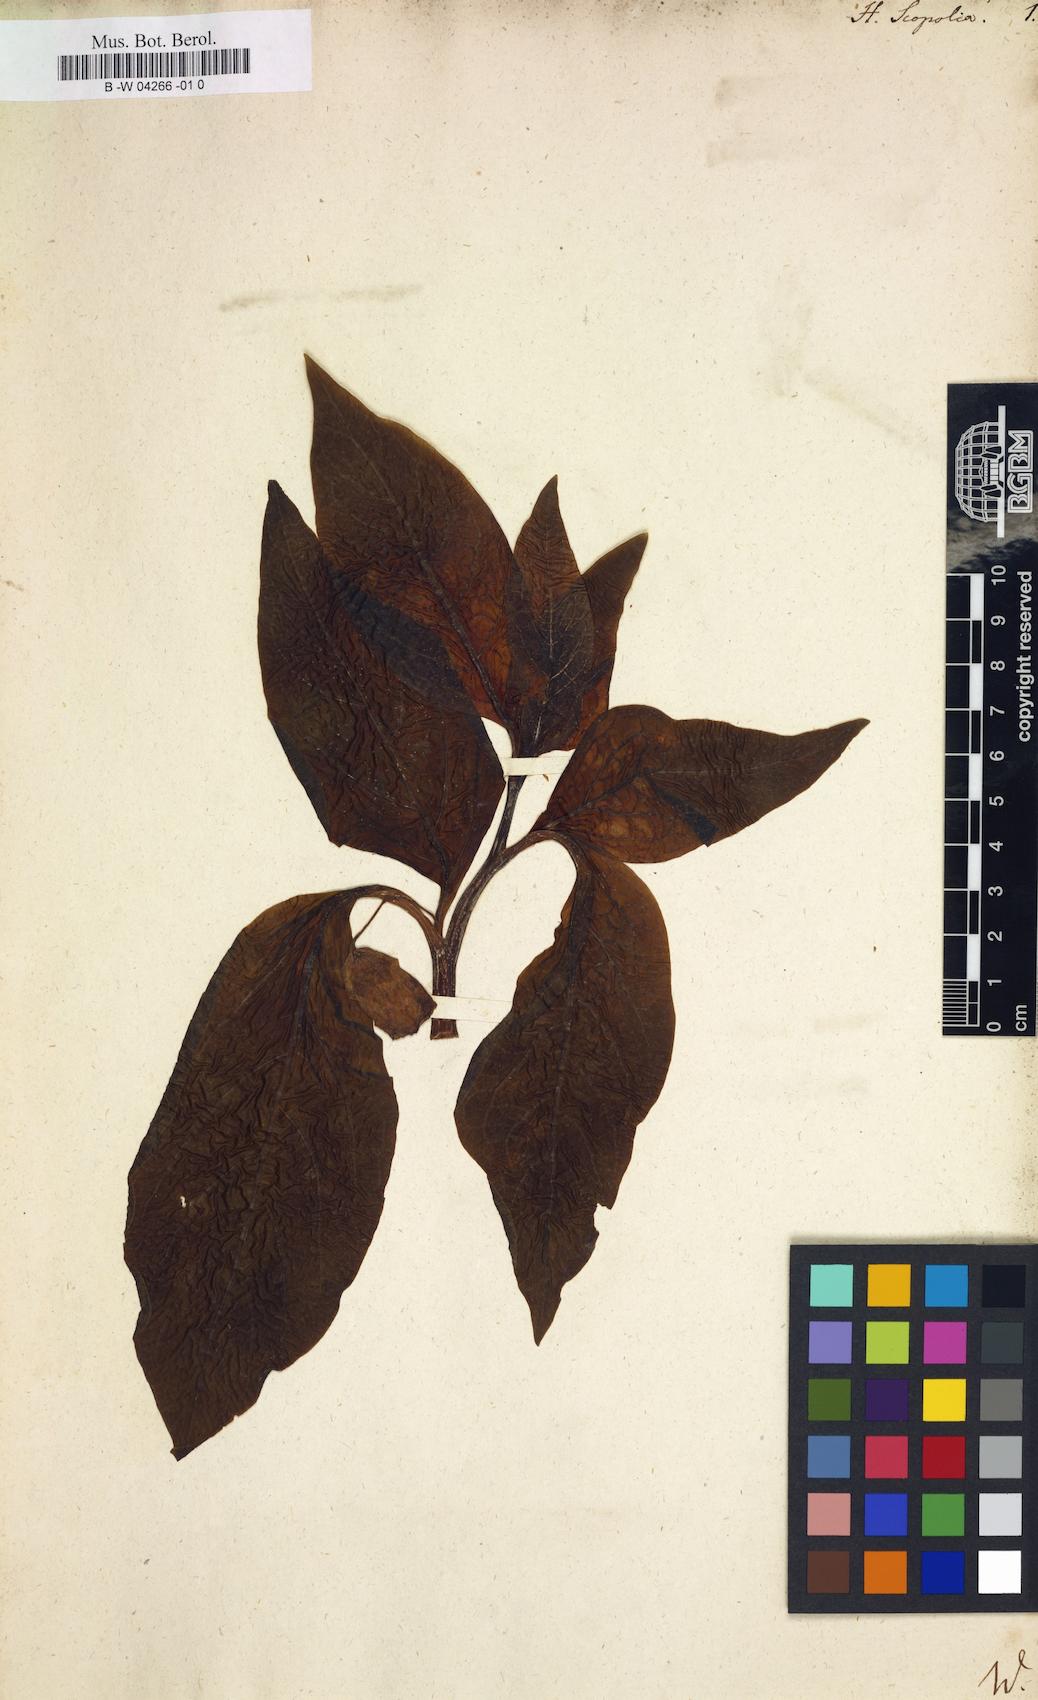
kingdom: Plantae
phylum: Tracheophyta
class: Magnoliopsida
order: Solanales
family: Solanaceae
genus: Scopolia
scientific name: Scopolia carniolica
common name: Scopolia
